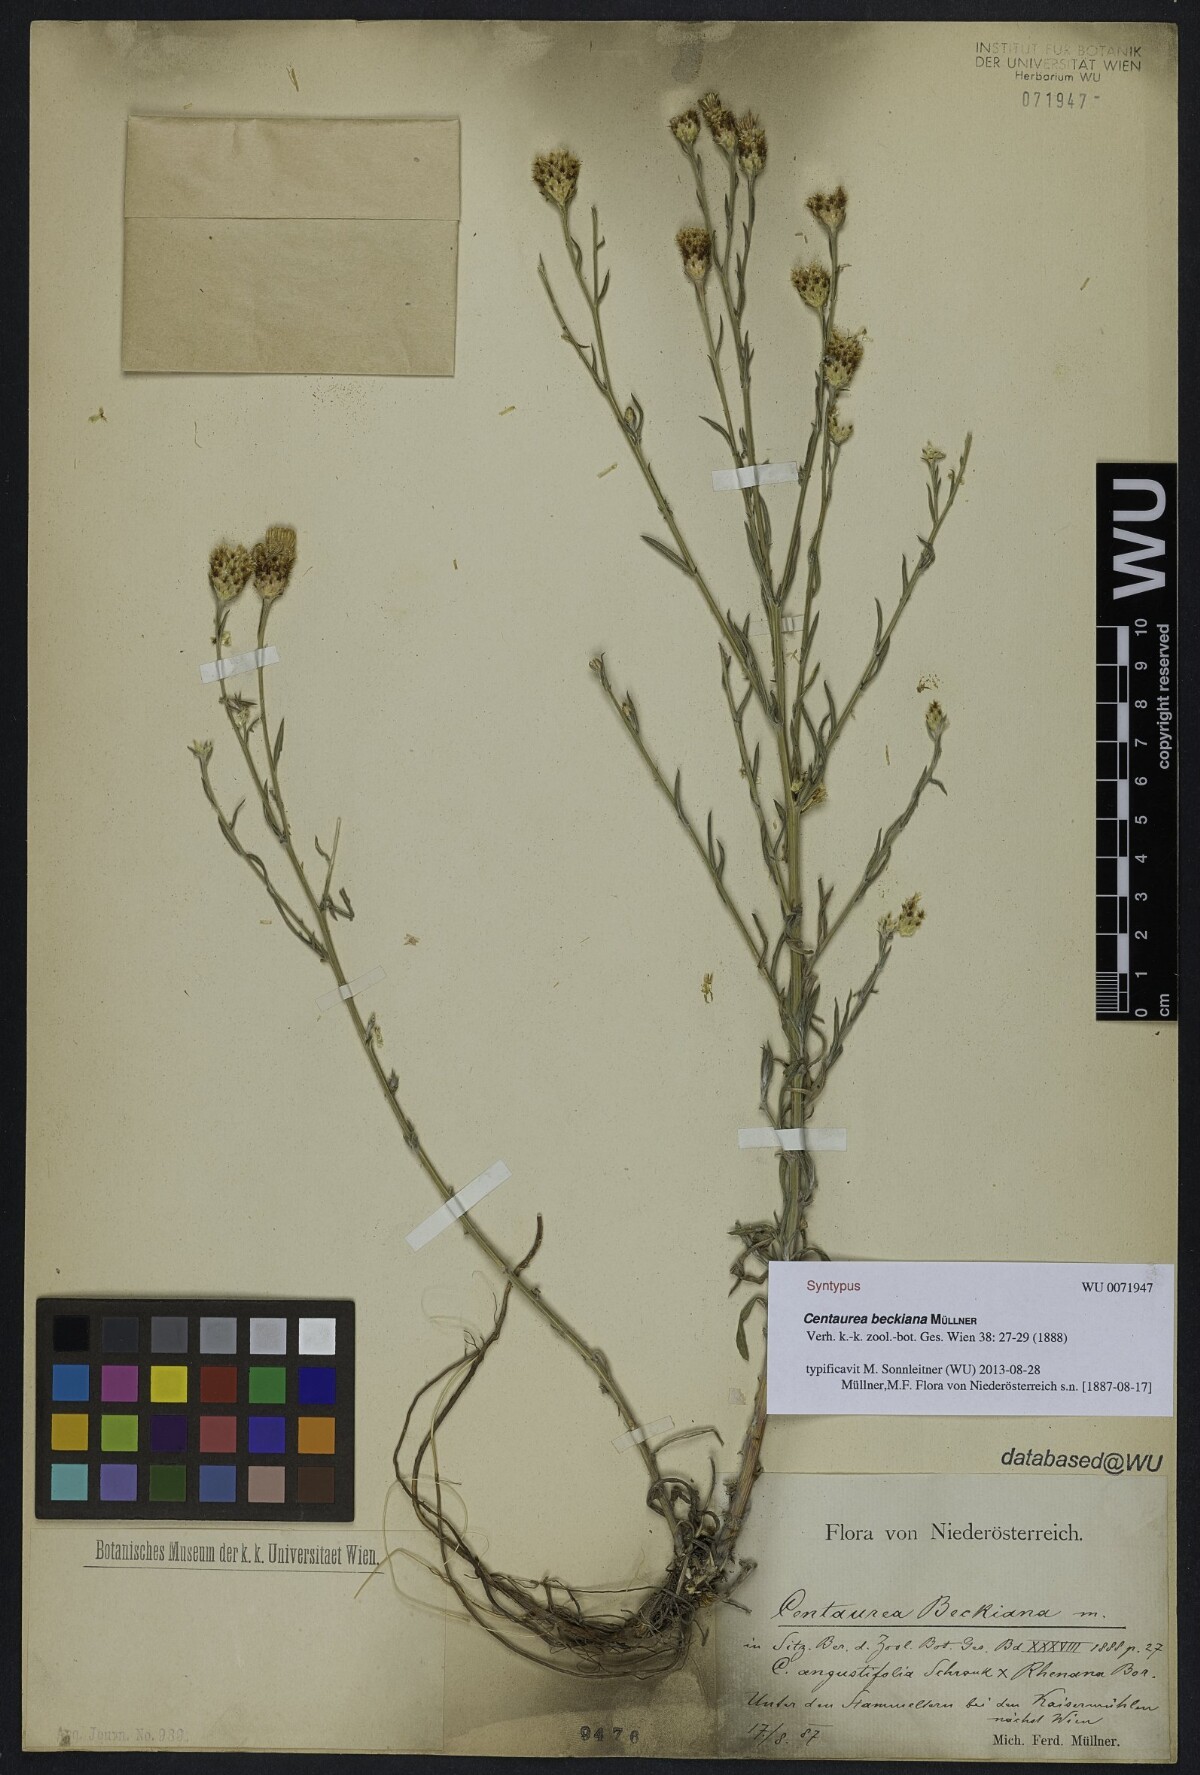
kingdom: Plantae
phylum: Tracheophyta
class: Magnoliopsida
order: Asterales
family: Asteraceae
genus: Centaurea
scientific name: Centaurea beckiana
